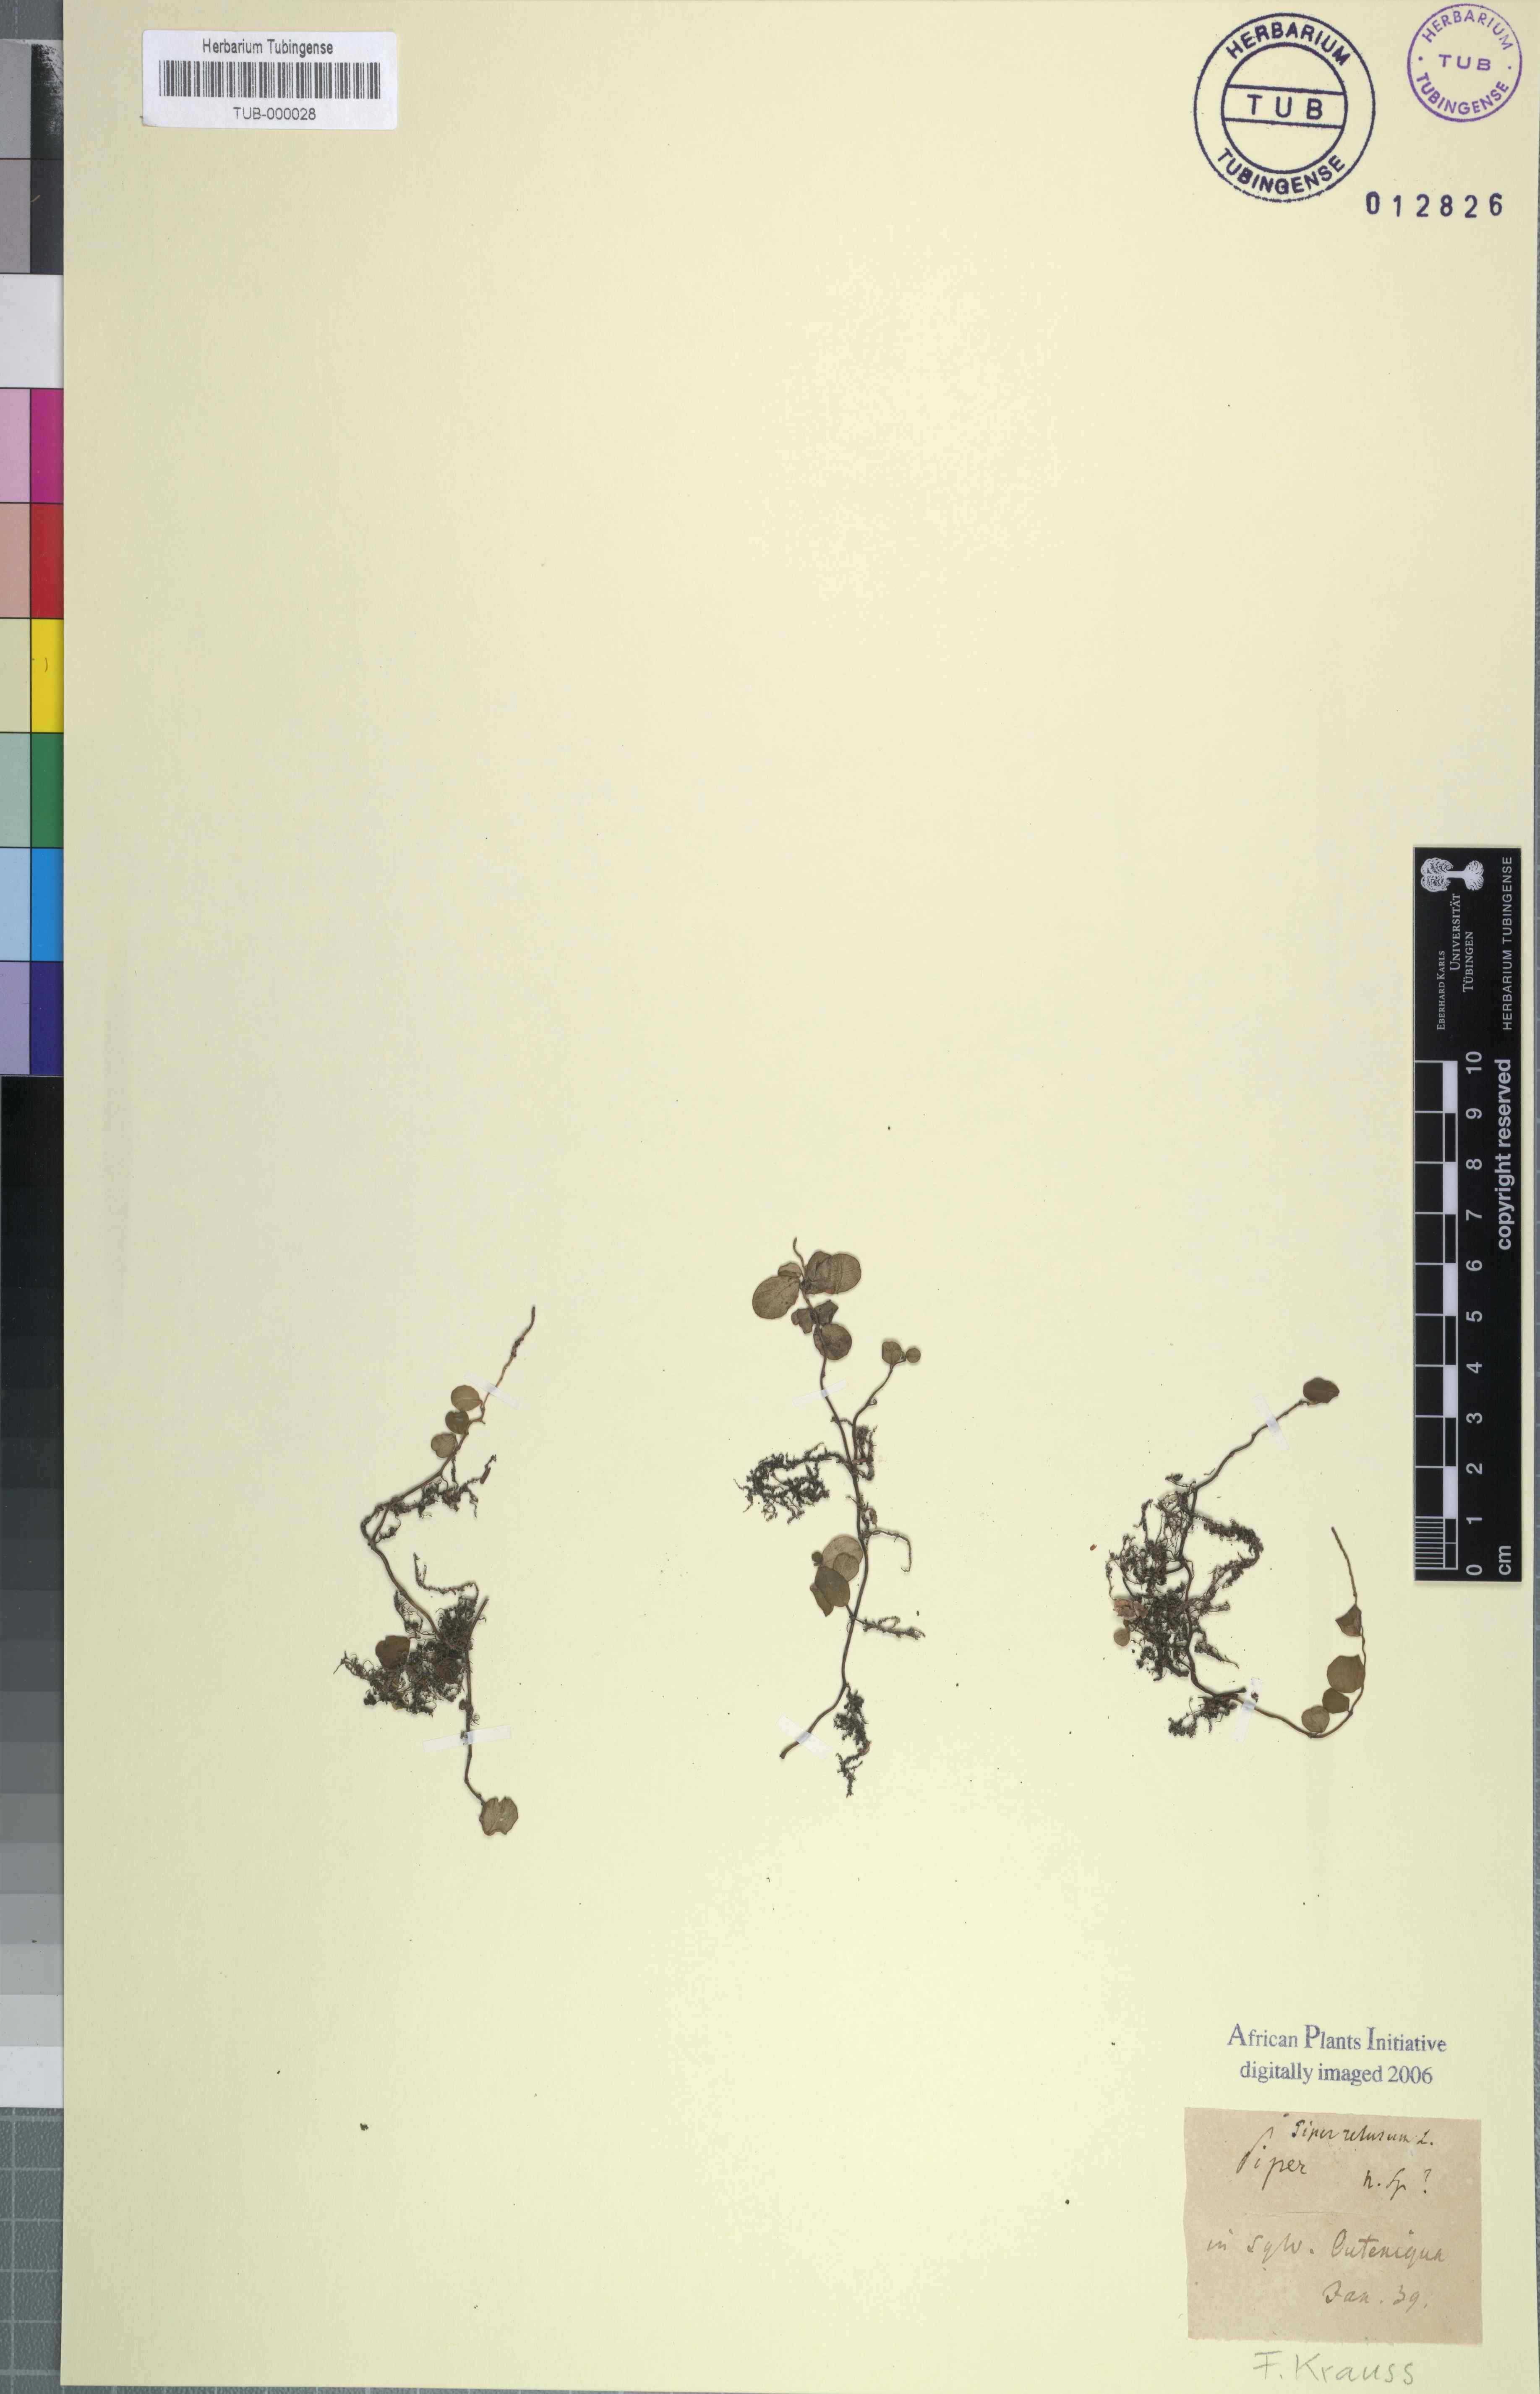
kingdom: Plantae
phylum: Tracheophyta
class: Magnoliopsida
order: Piperales
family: Piperaceae
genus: Peperomia
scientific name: Peperomia tetraphylla
